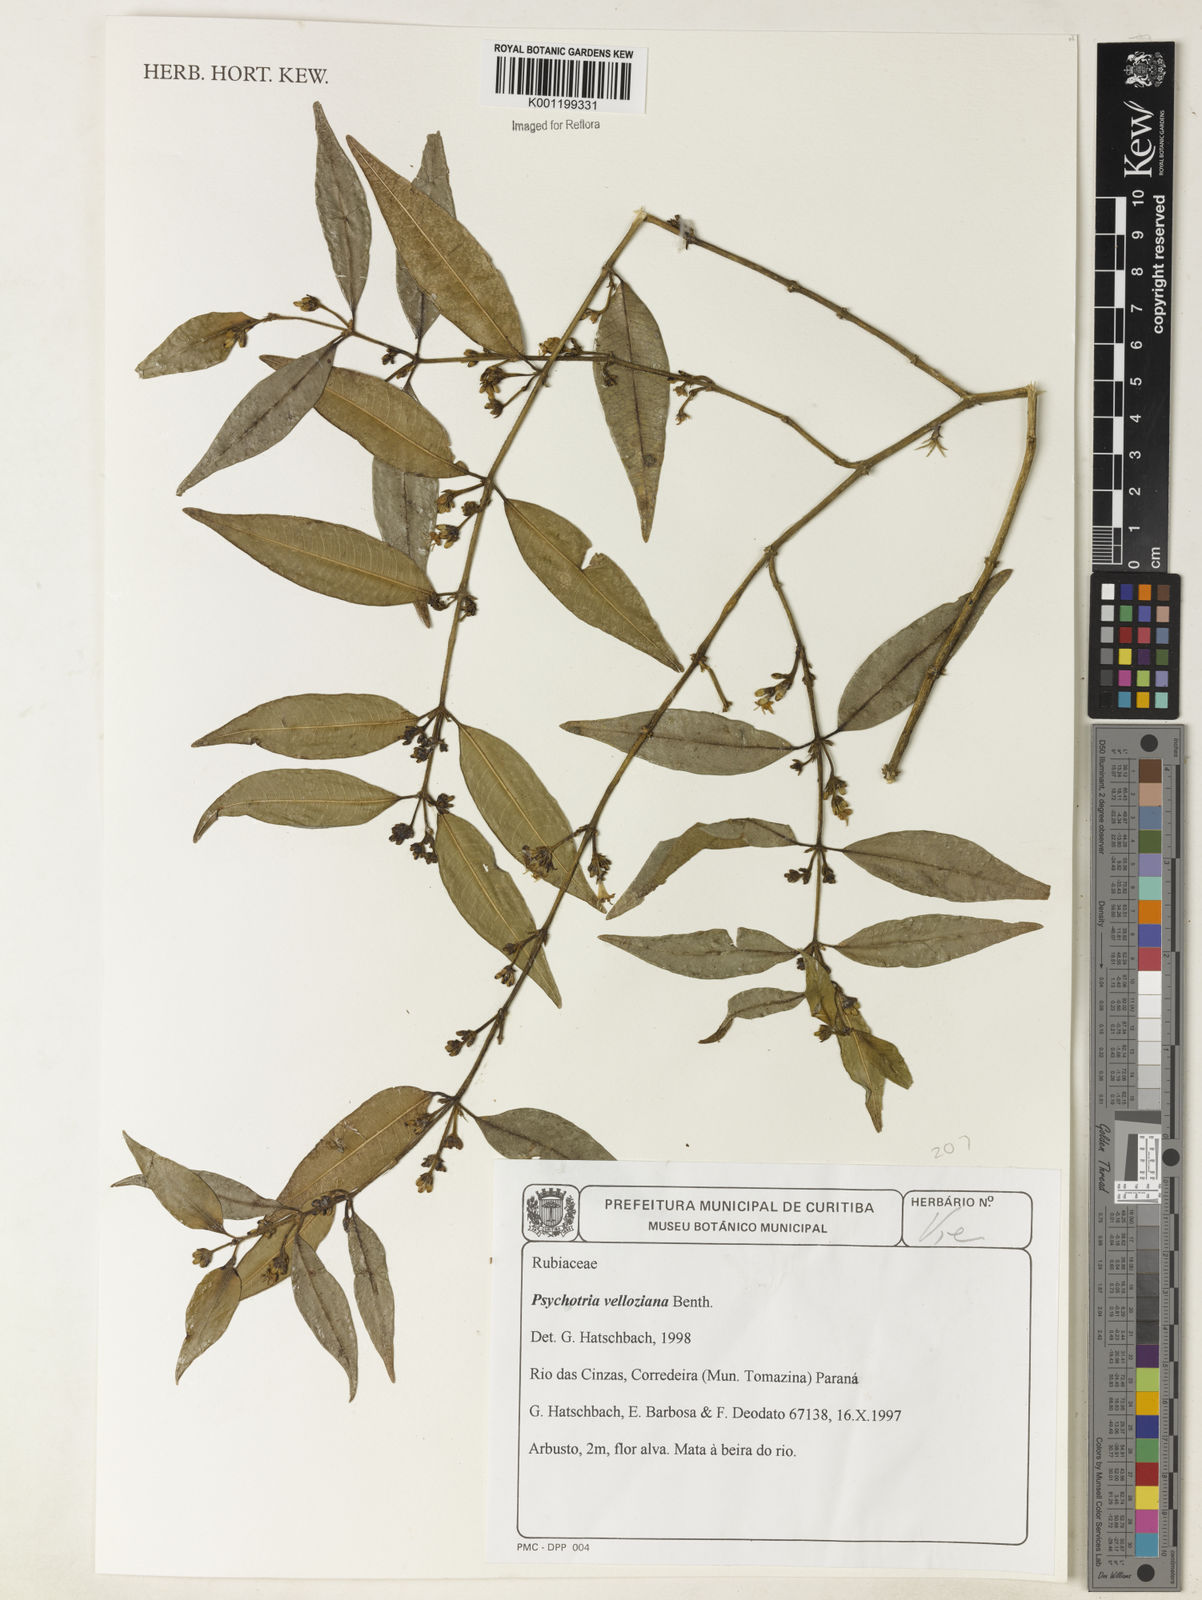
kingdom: Plantae
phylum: Tracheophyta
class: Magnoliopsida
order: Gentianales
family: Rubiaceae
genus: Rudgea
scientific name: Rudgea sessilis
